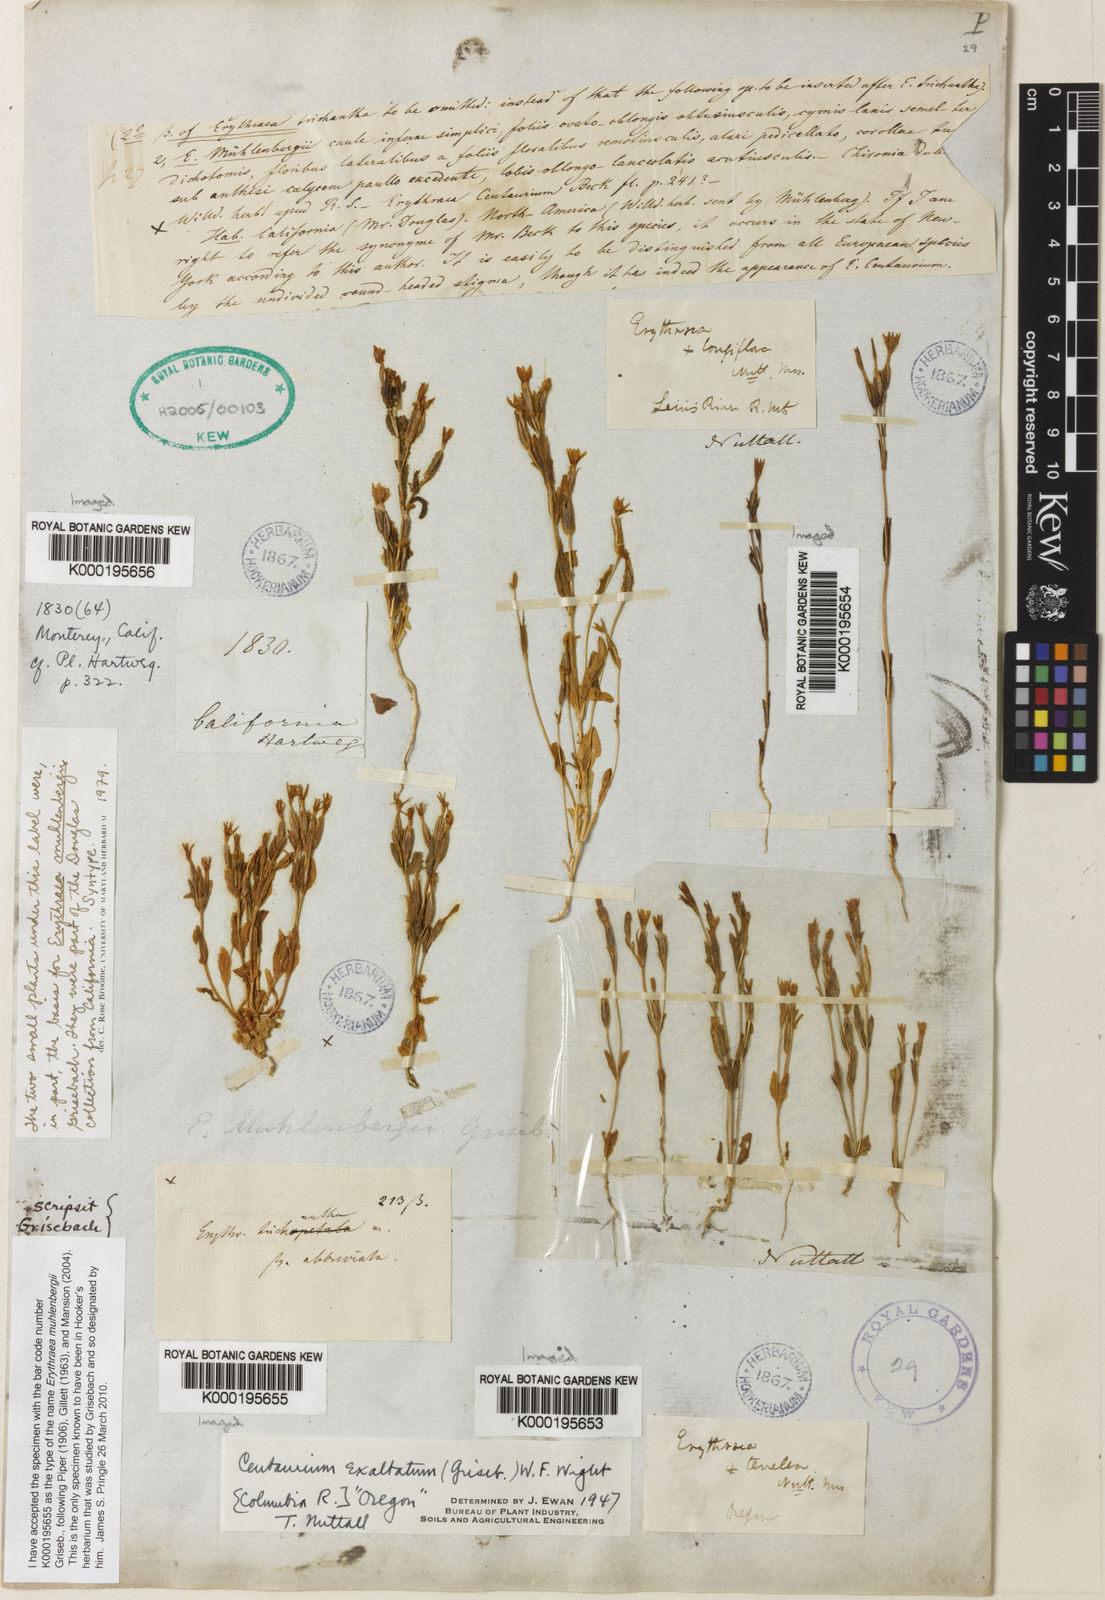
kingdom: Plantae
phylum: Tracheophyta
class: Magnoliopsida
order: Gentianales
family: Gentianaceae
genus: Centaurium
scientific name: Centaurium
